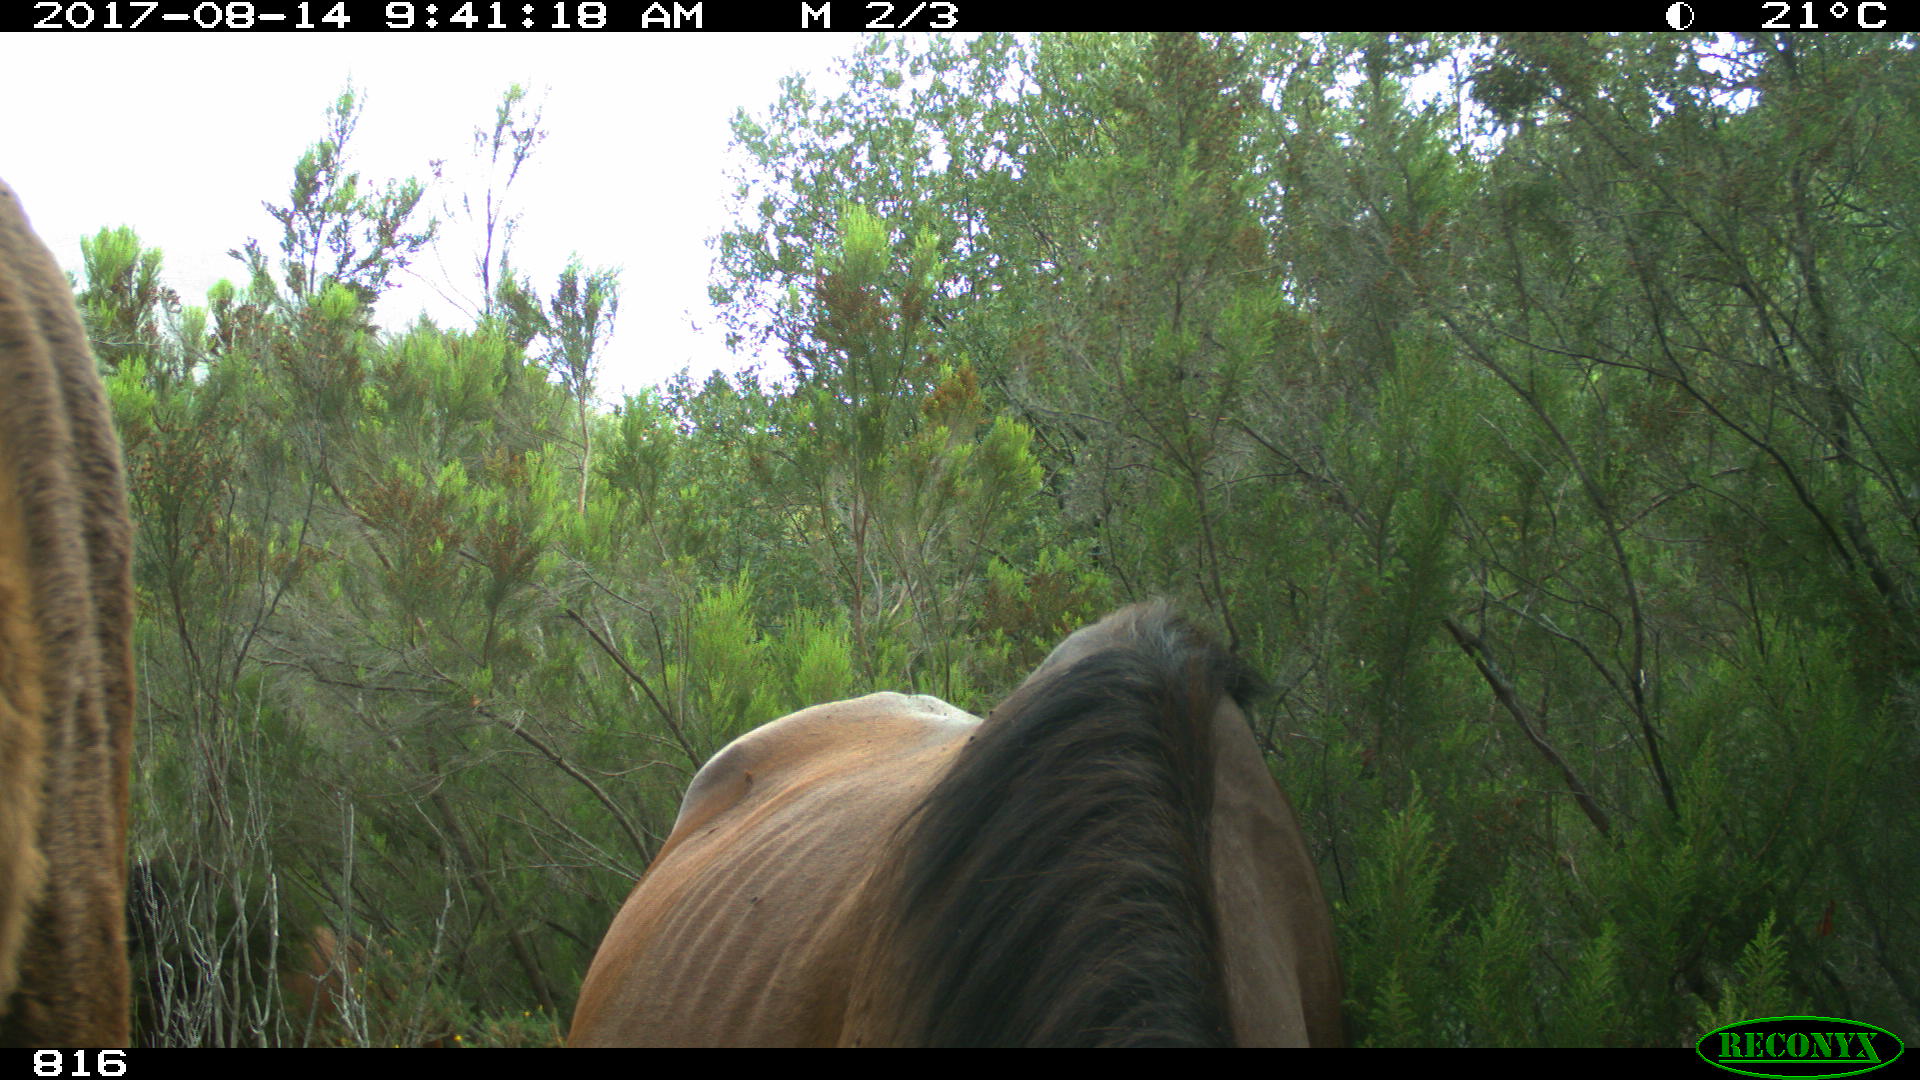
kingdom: Animalia
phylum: Chordata
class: Mammalia
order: Perissodactyla
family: Equidae
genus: Equus
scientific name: Equus caballus
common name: Horse
